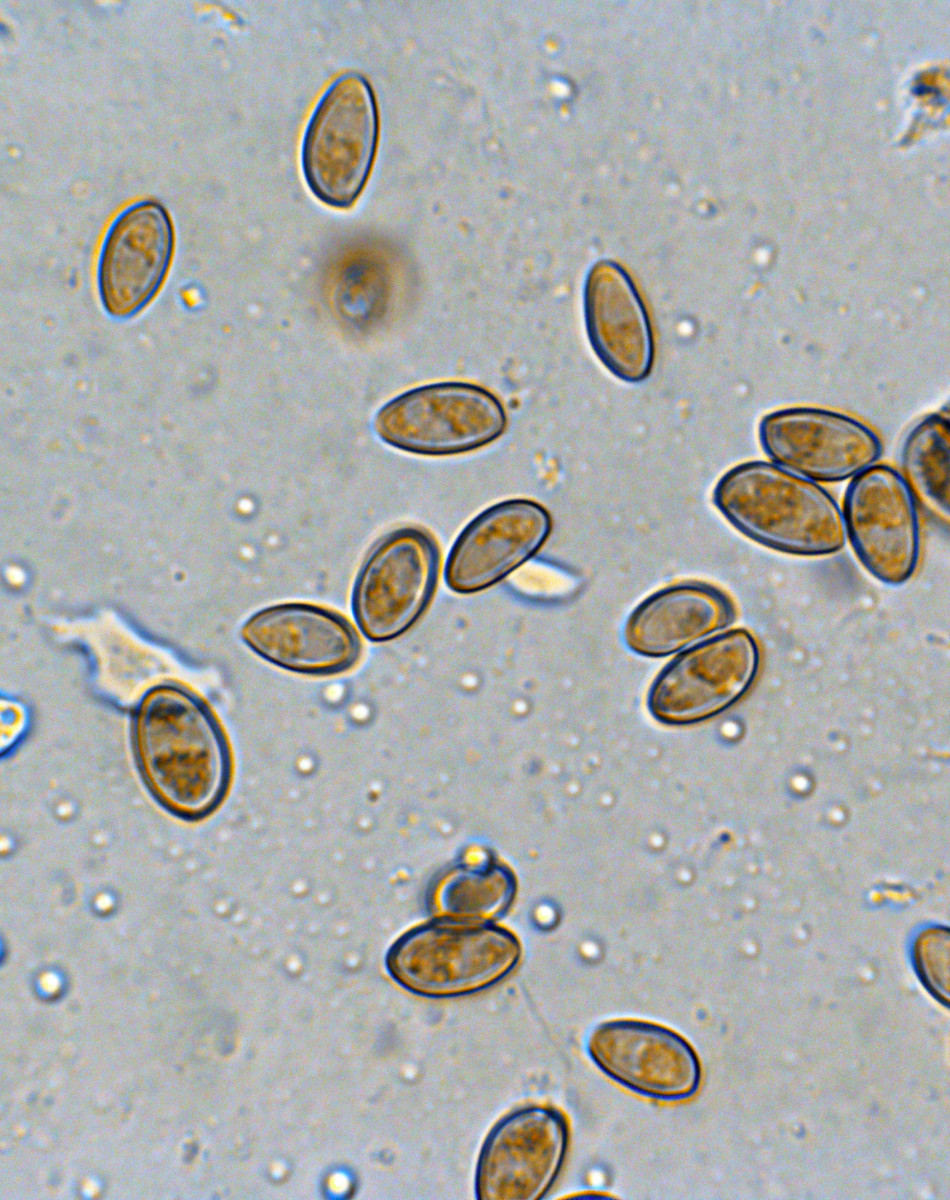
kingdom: Fungi
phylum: Basidiomycota
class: Agaricomycetes
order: Agaricales
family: Bolbitiaceae
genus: Conocybe
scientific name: Conocybe macrocephala
